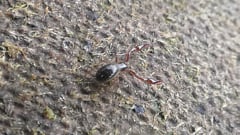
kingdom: Animalia
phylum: Arthropoda
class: Arachnida
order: Pseudoscorpiones
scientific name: Pseudoscorpiones
